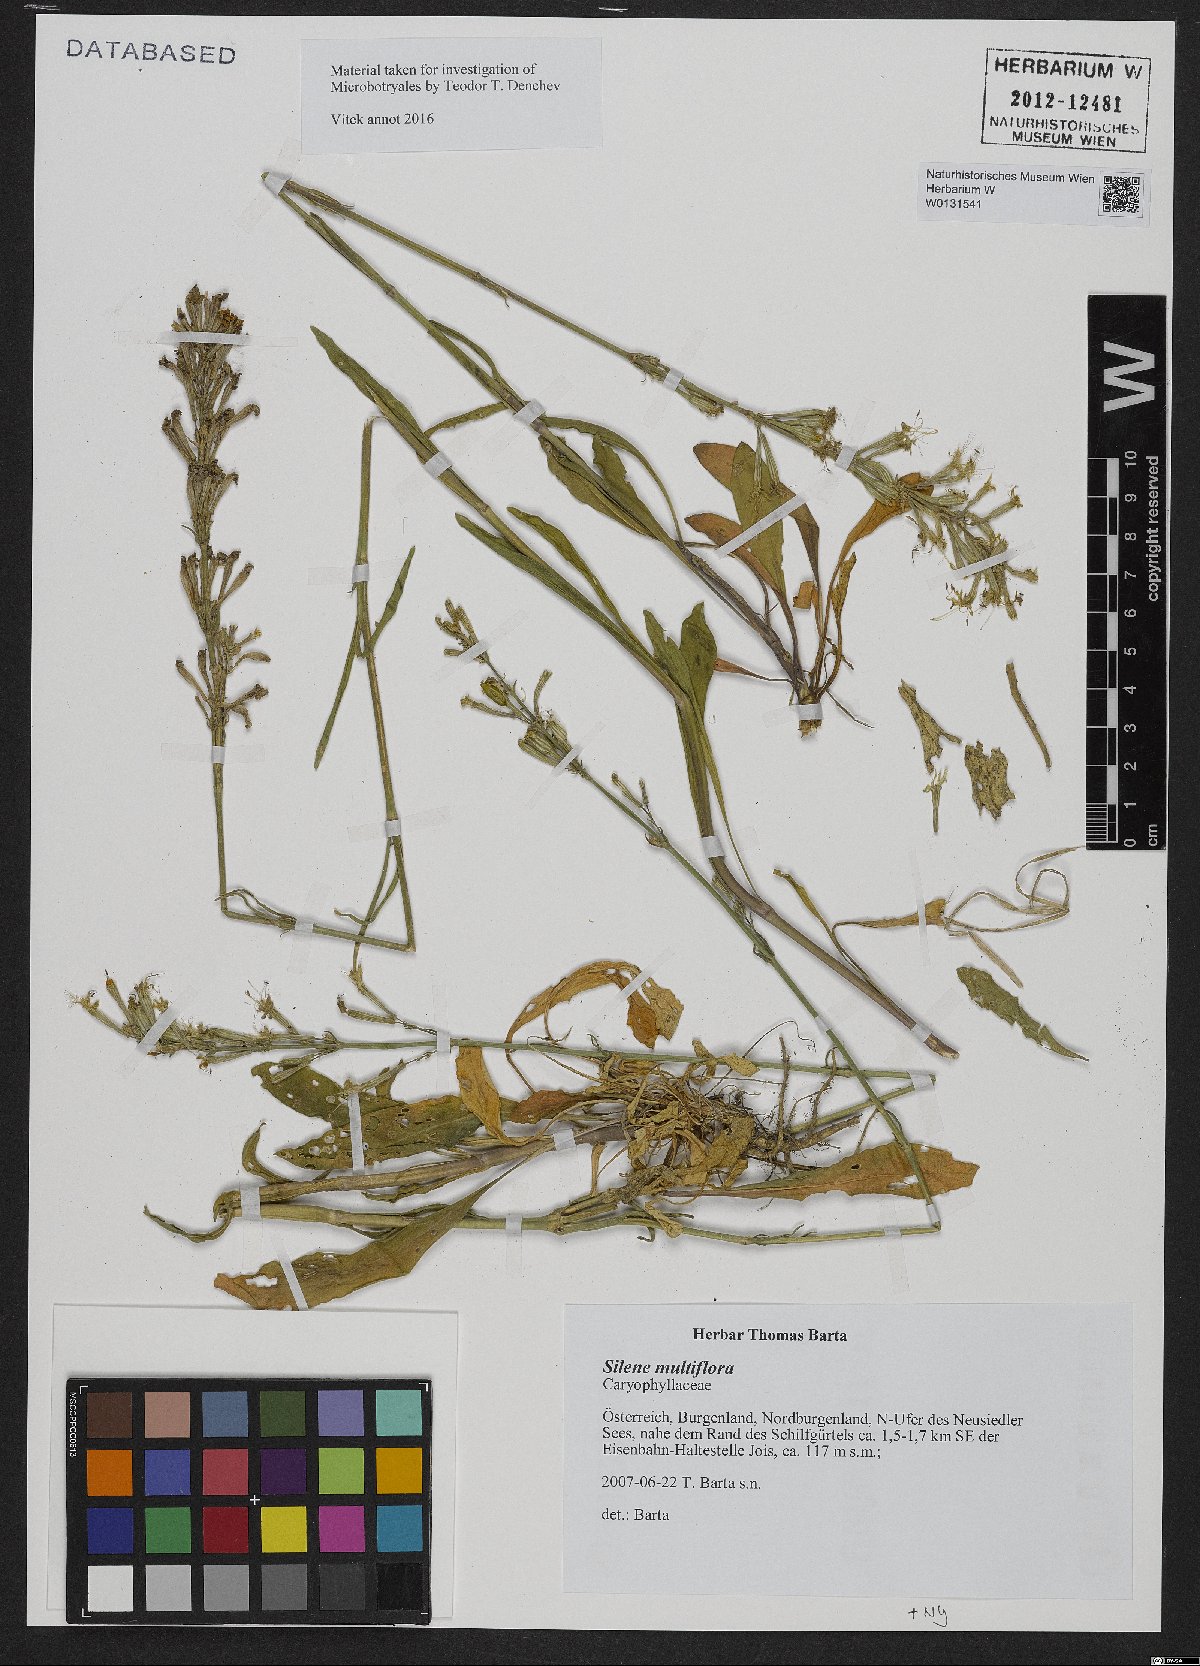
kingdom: Plantae
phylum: Tracheophyta
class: Magnoliopsida
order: Caryophyllales
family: Caryophyllaceae
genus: Silene
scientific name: Silene multiflora
